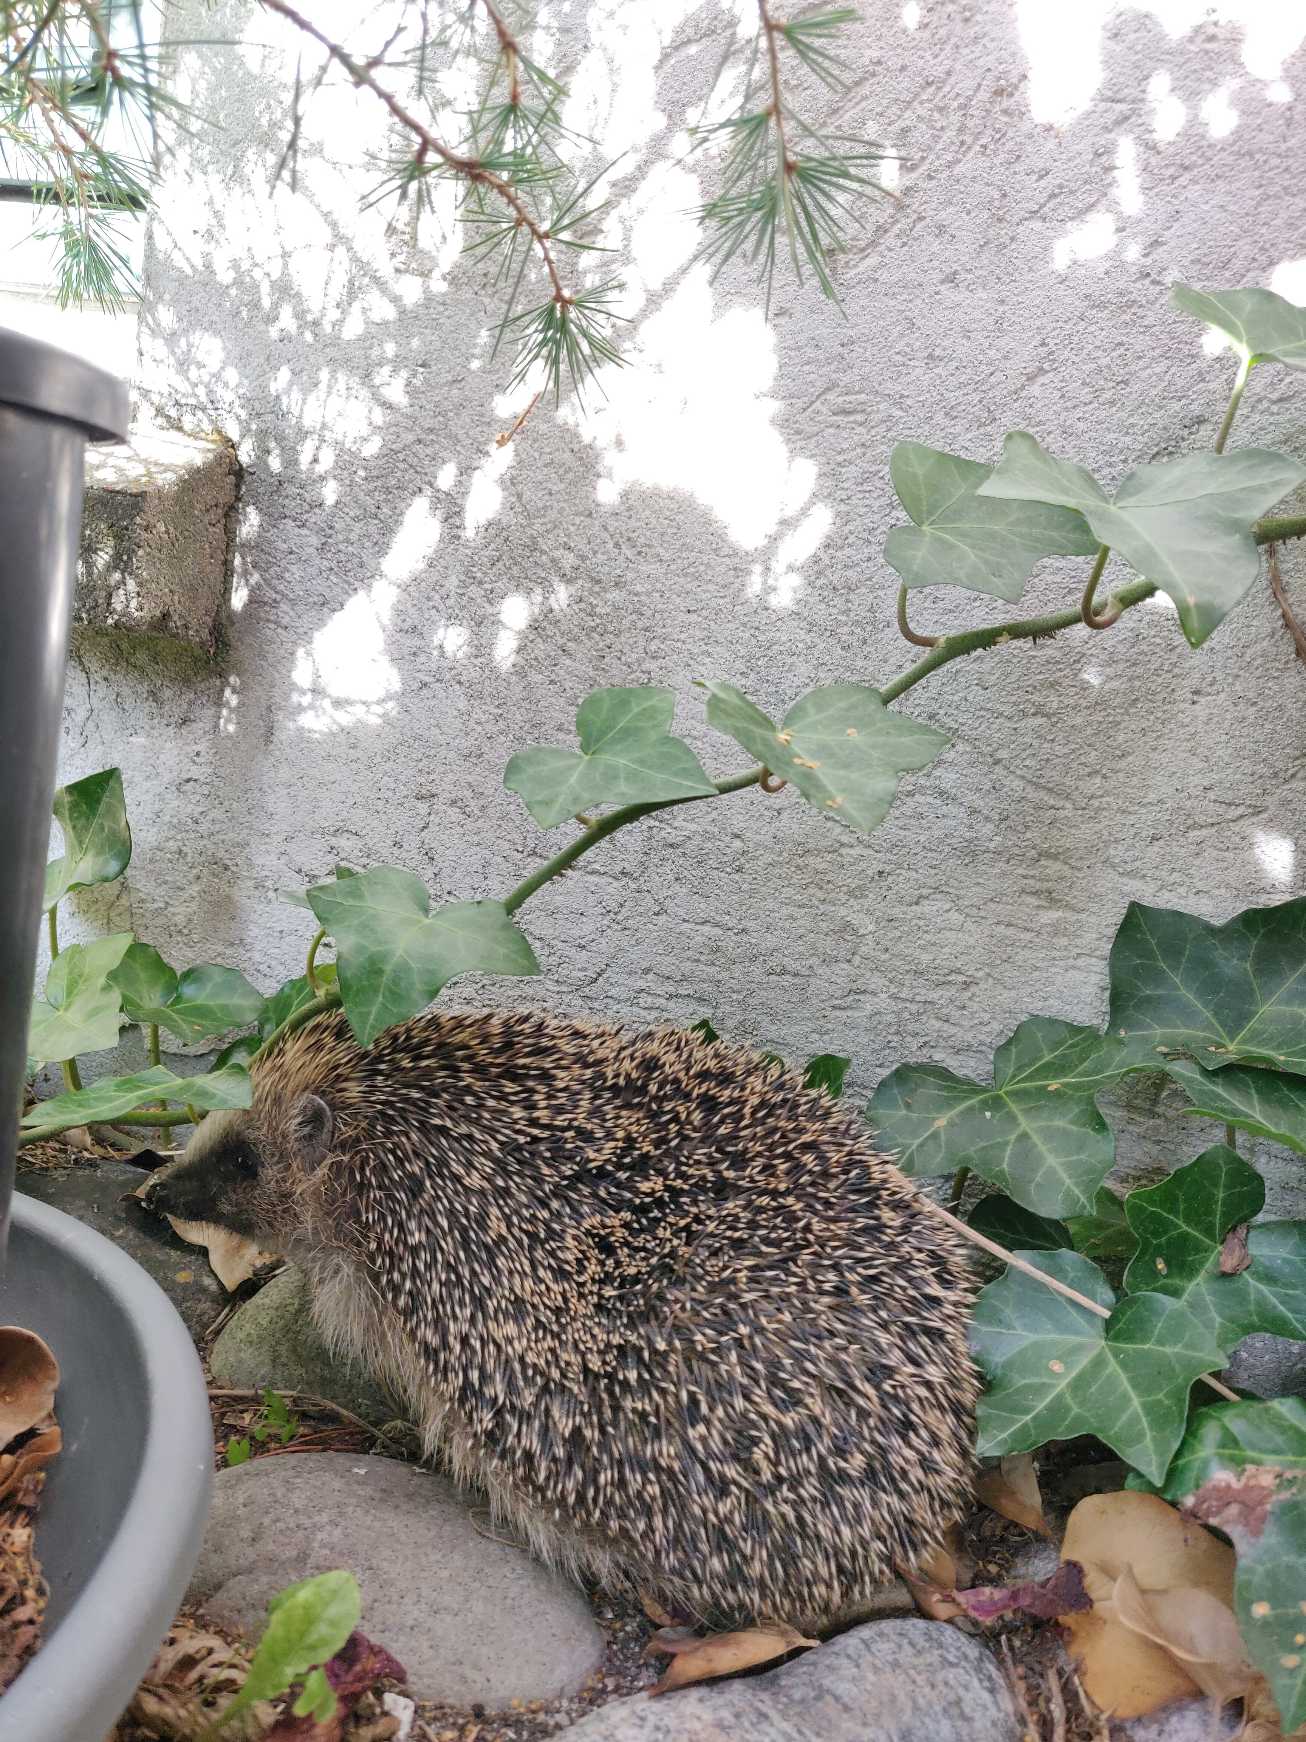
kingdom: Animalia
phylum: Chordata
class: Mammalia
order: Erinaceomorpha
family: Erinaceidae
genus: Erinaceus
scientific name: Erinaceus europaeus
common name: Pindsvin
